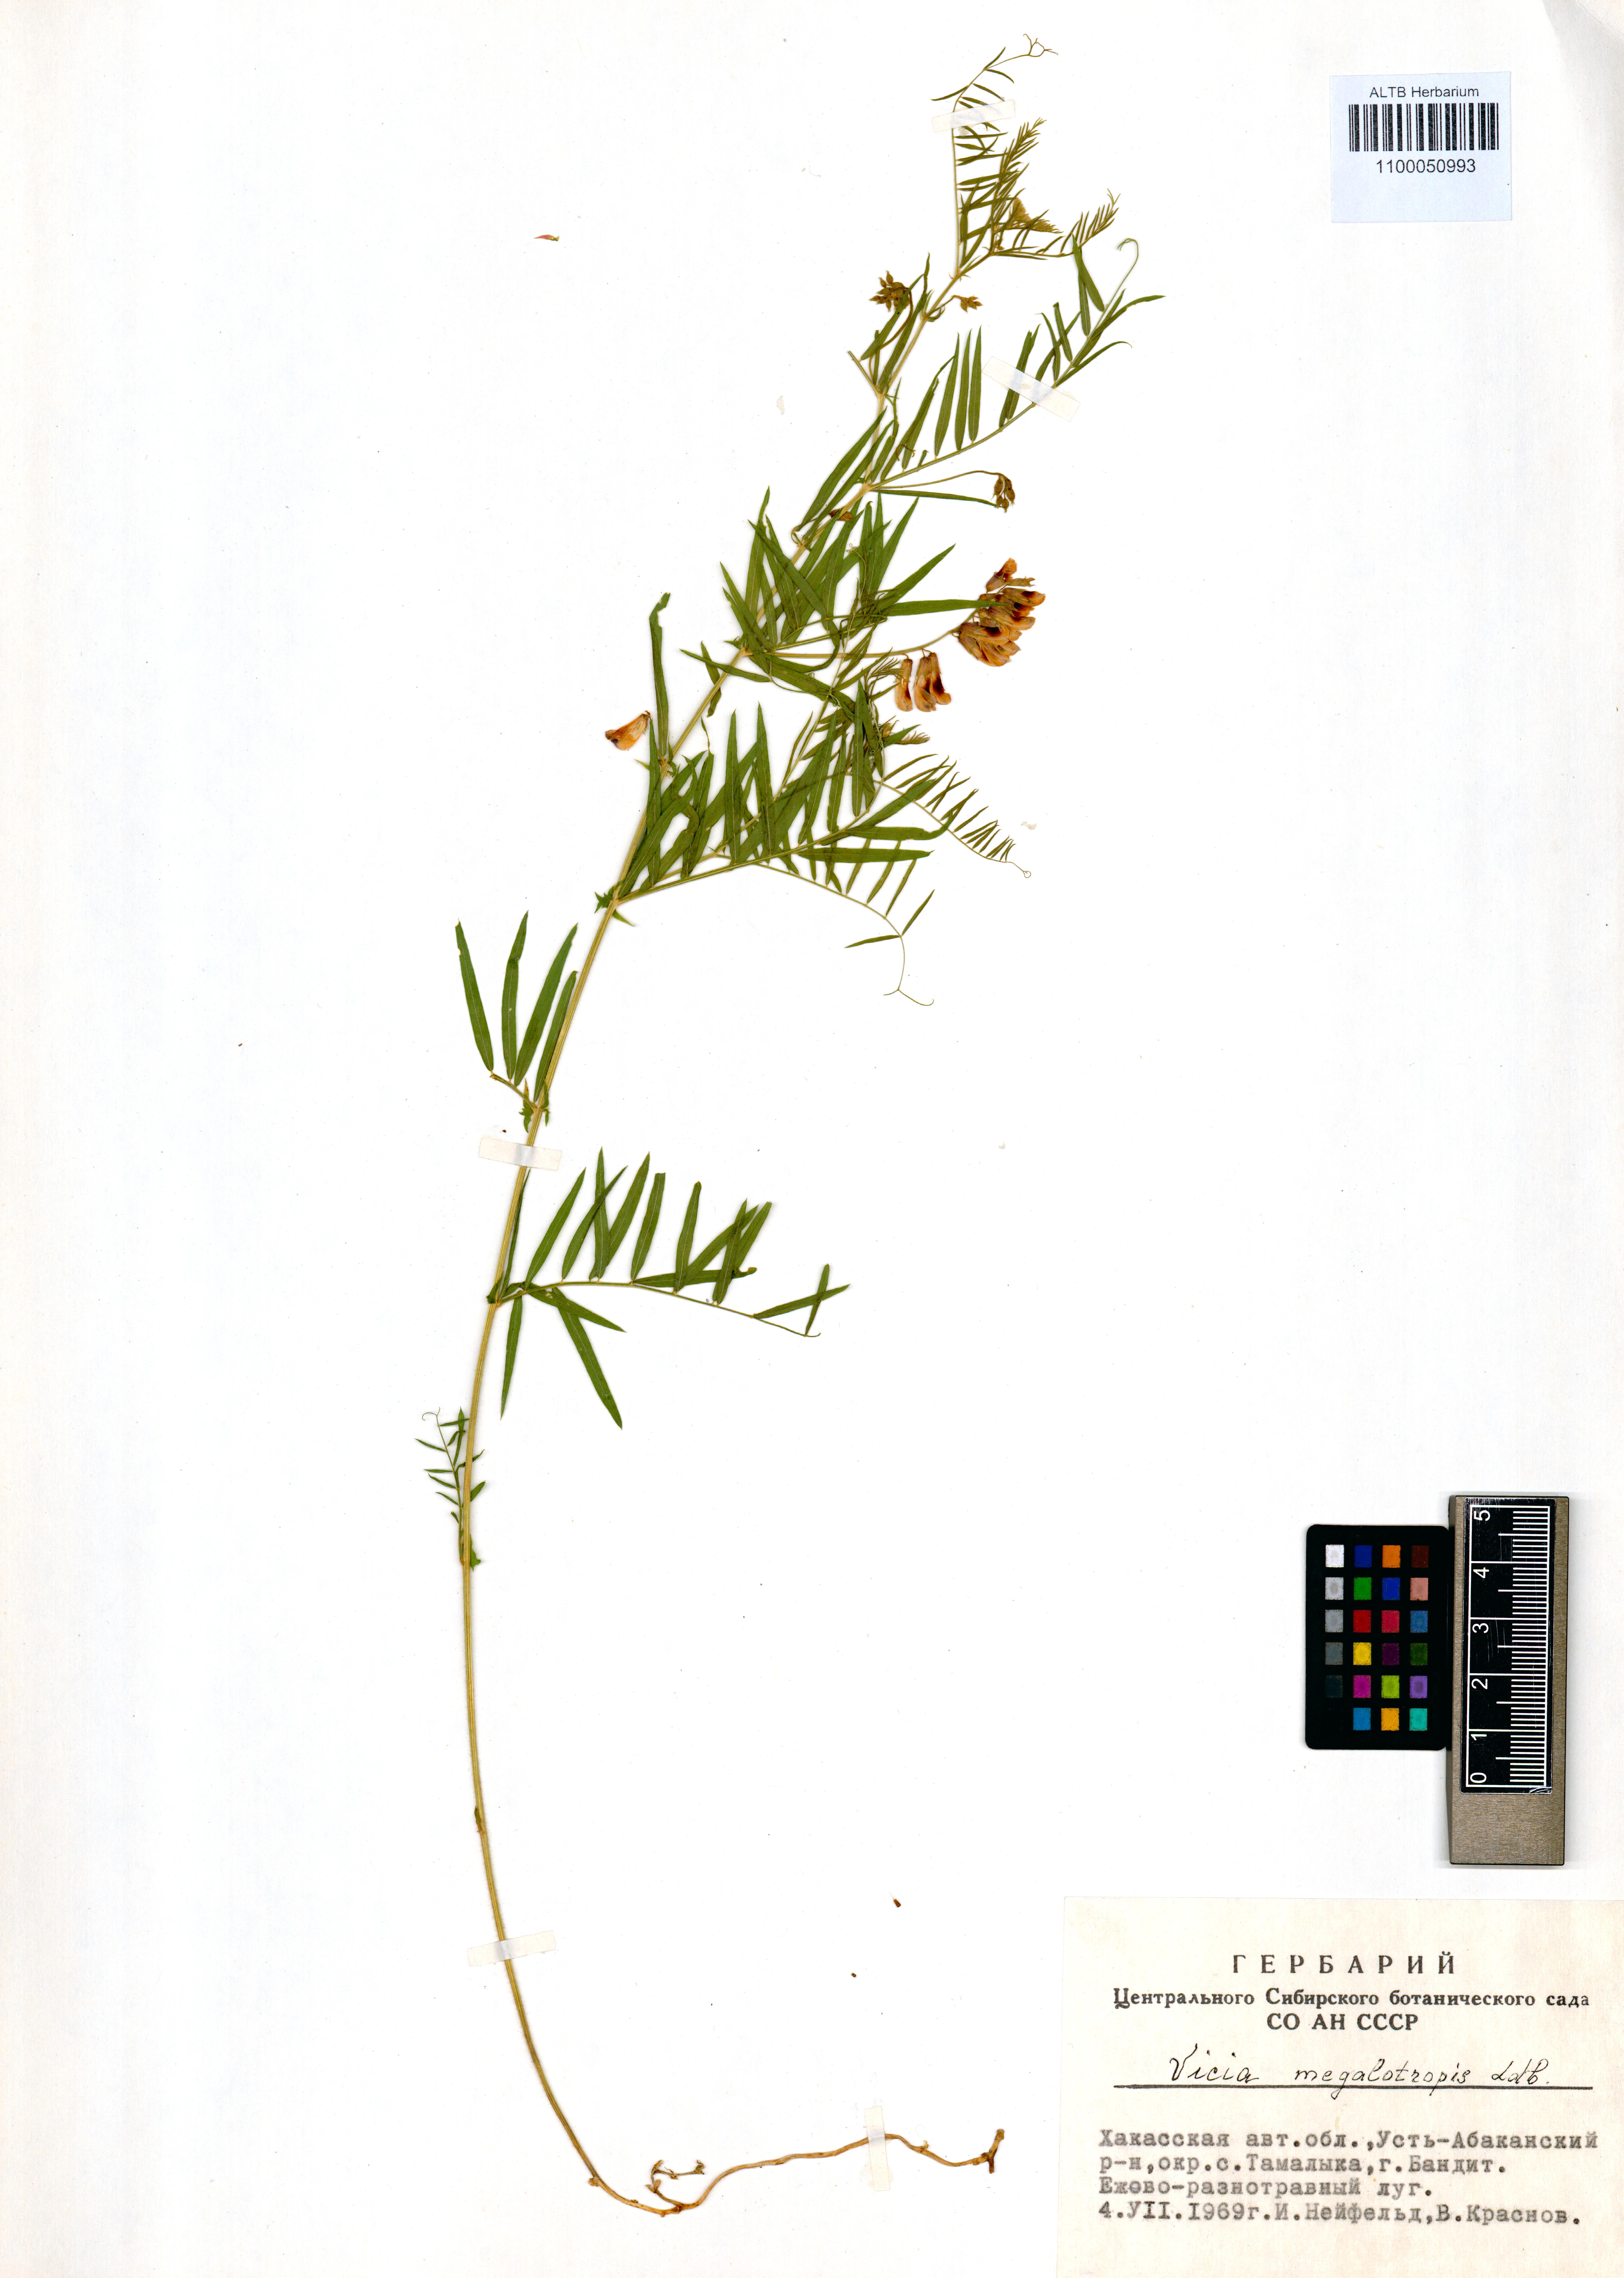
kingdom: Plantae
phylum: Tracheophyta
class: Magnoliopsida
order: Fabales
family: Fabaceae
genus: Vicia
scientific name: Vicia megalotropis
